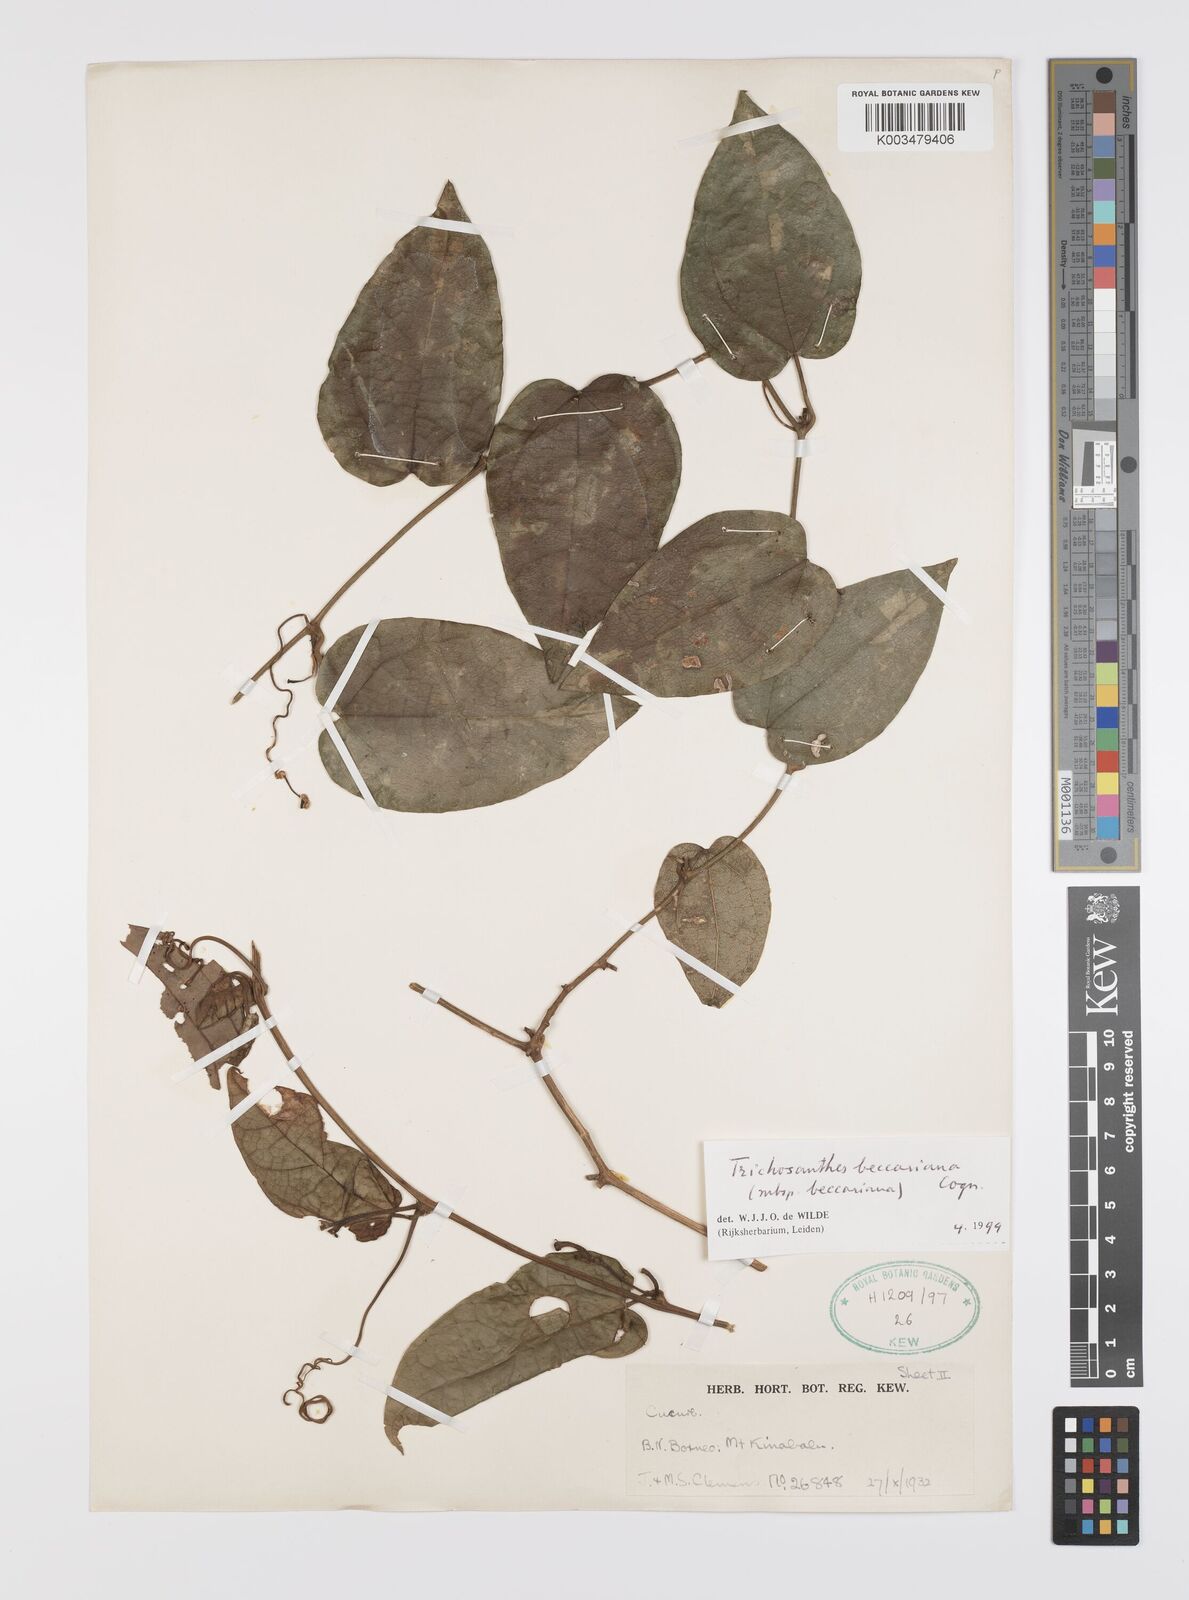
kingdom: Plantae
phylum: Tracheophyta
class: Magnoliopsida
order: Cucurbitales
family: Cucurbitaceae
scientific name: Cucurbitaceae
